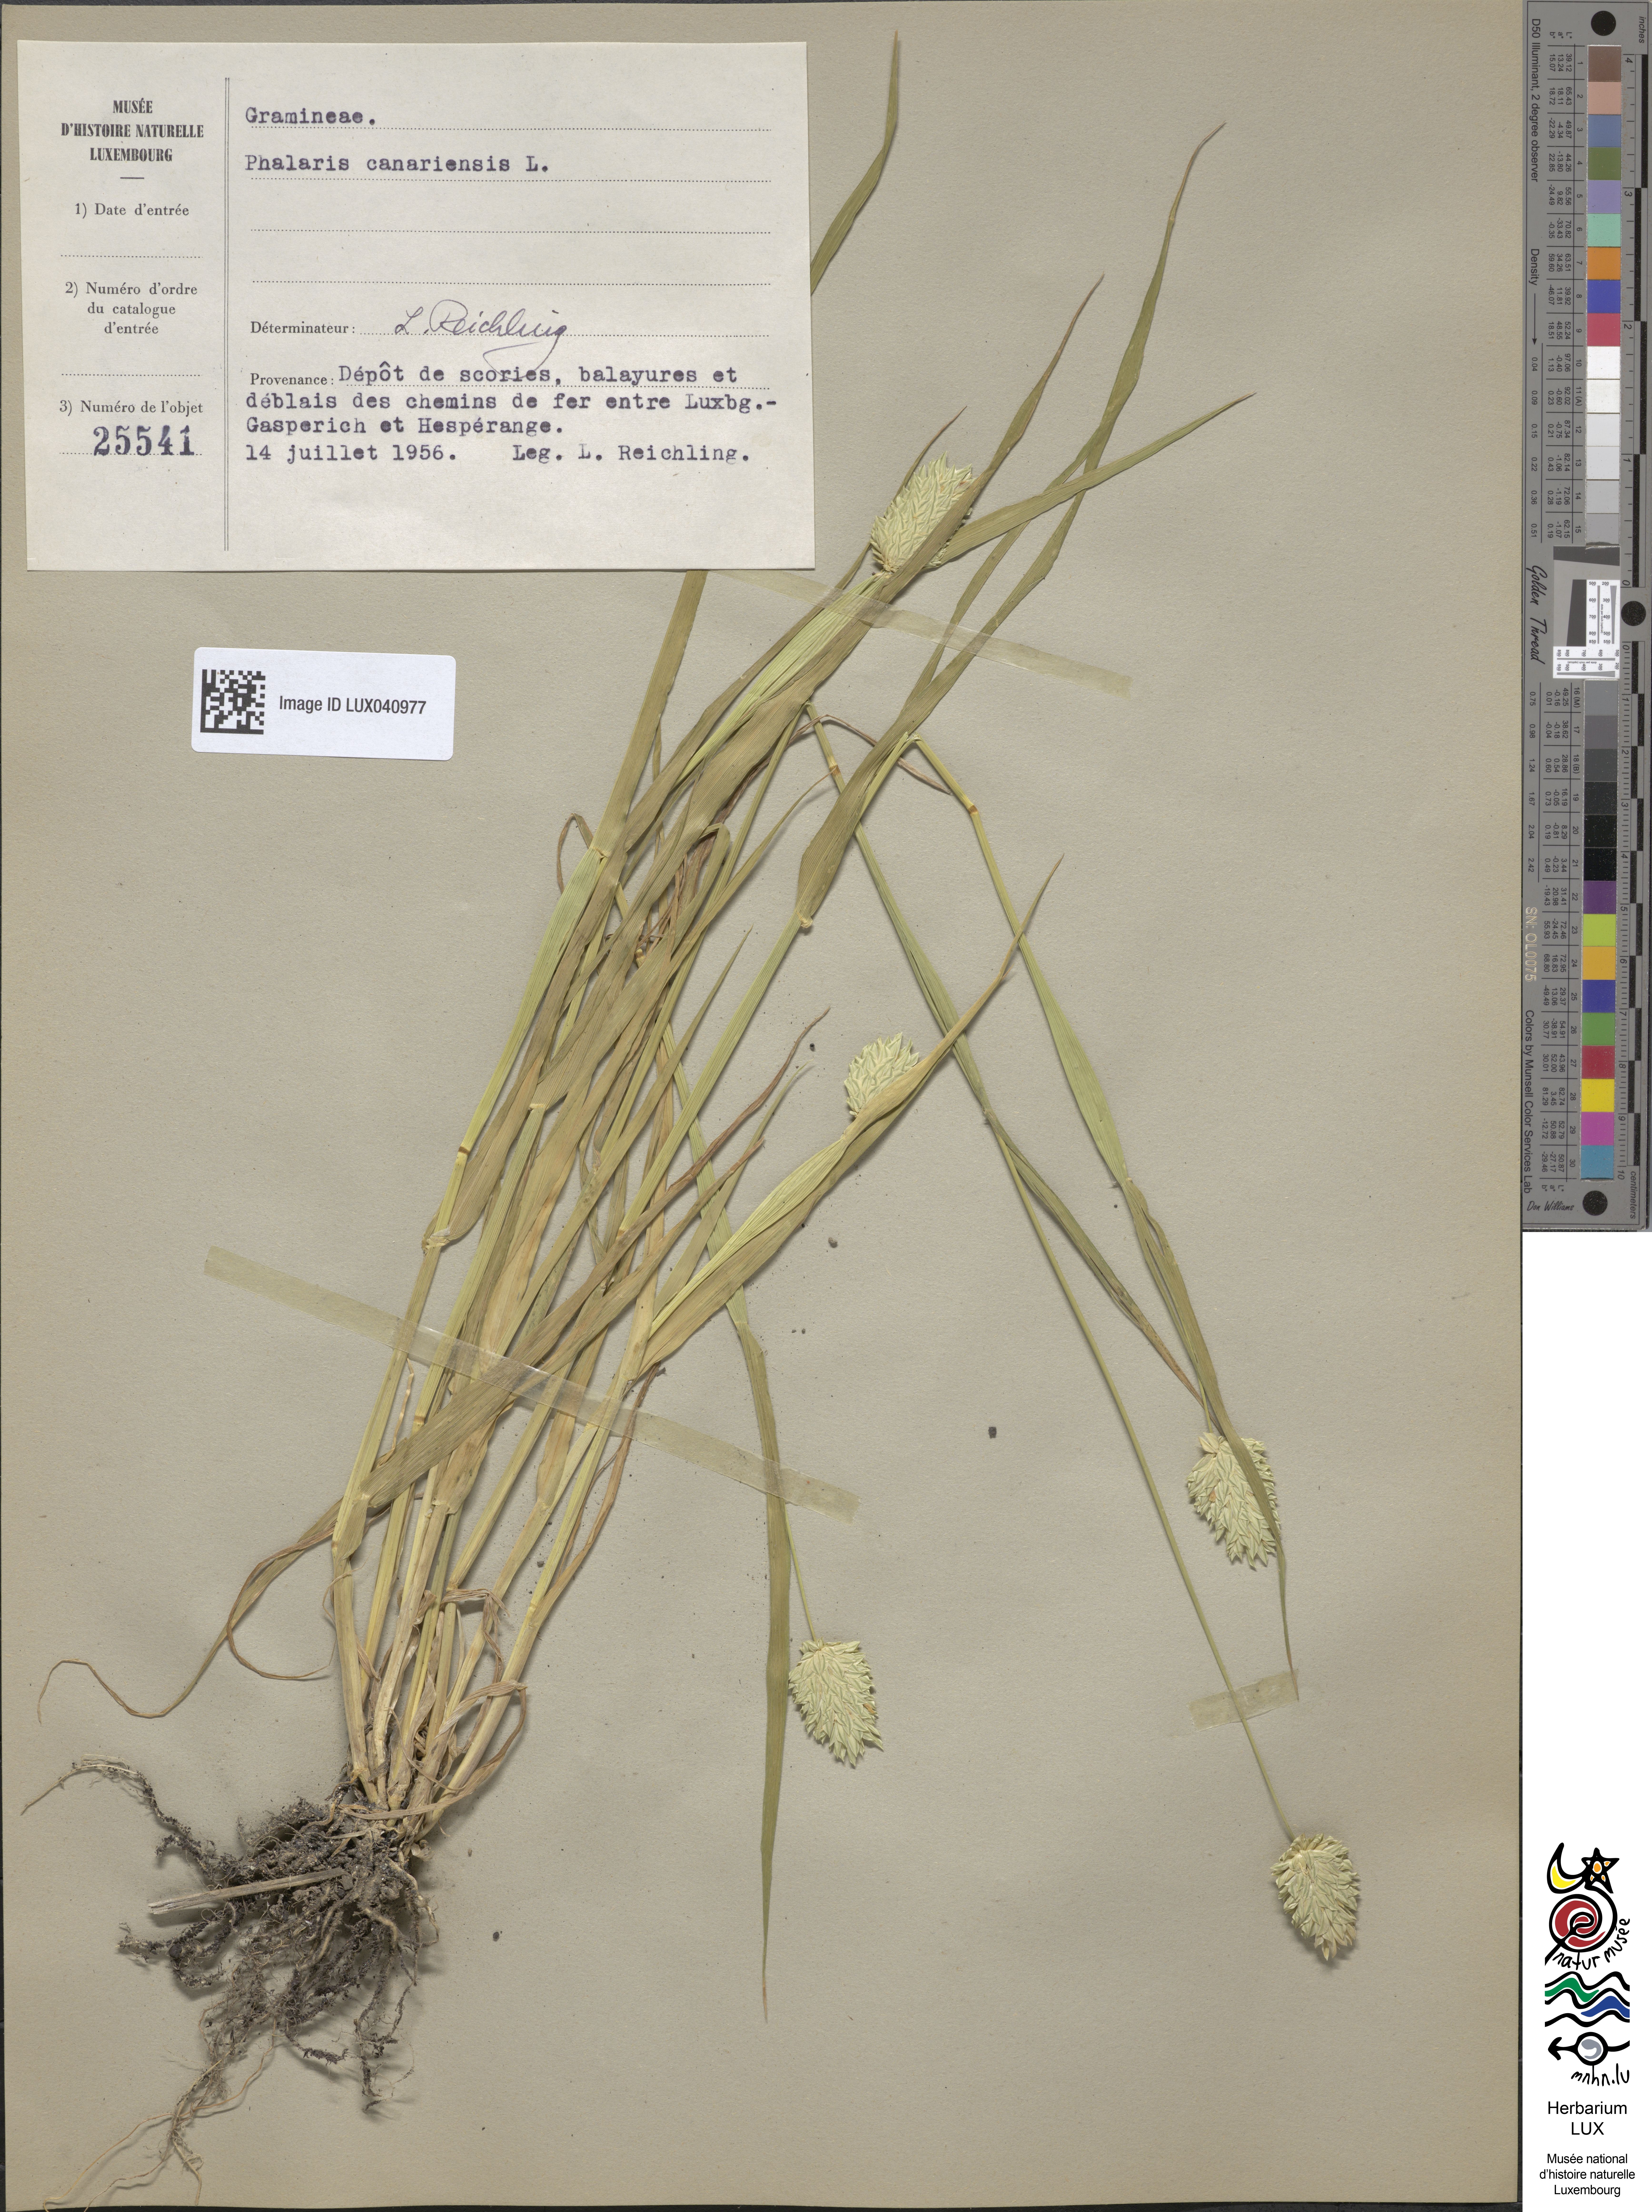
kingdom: Plantae
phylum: Tracheophyta
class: Liliopsida
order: Poales
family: Poaceae
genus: Phalaris
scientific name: Phalaris canariensis
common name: Annual canarygrass
